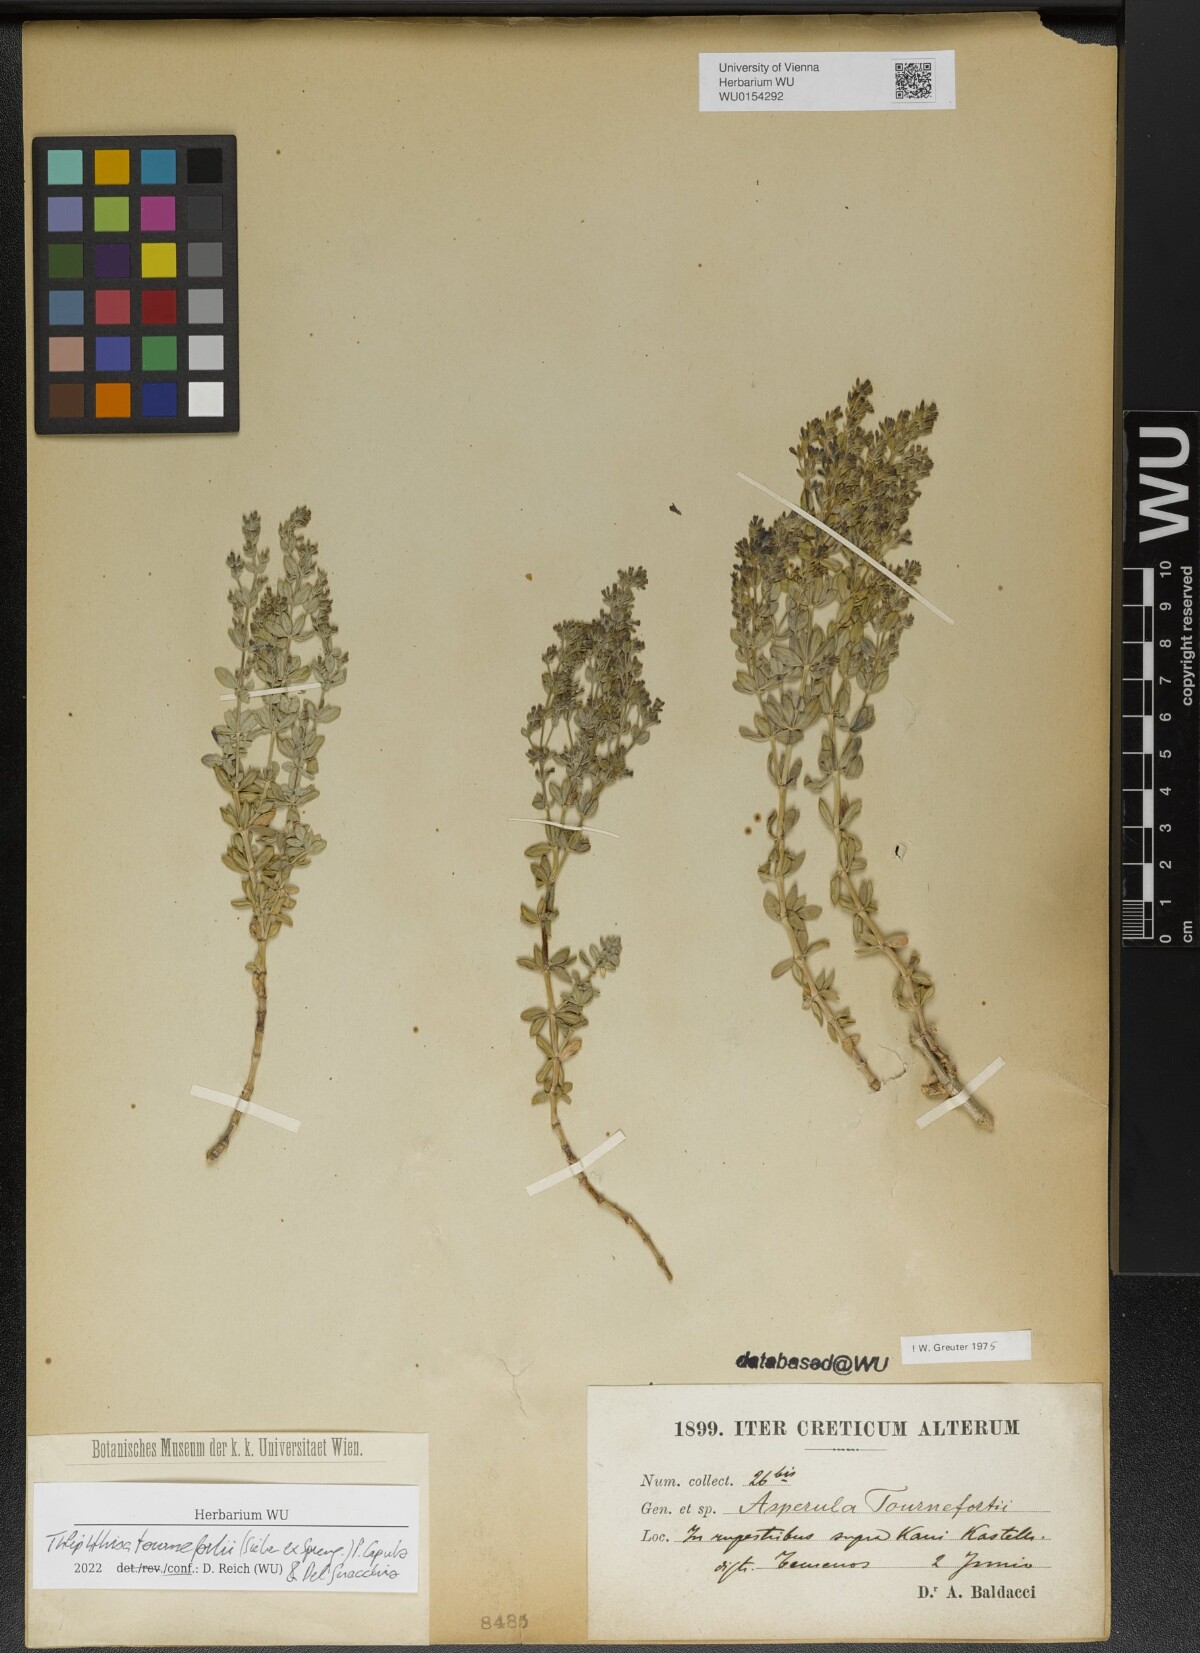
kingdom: Plantae
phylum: Tracheophyta
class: Magnoliopsida
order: Gentianales
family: Rubiaceae
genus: Thliphthisa
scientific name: Thliphthisa tournefortii
